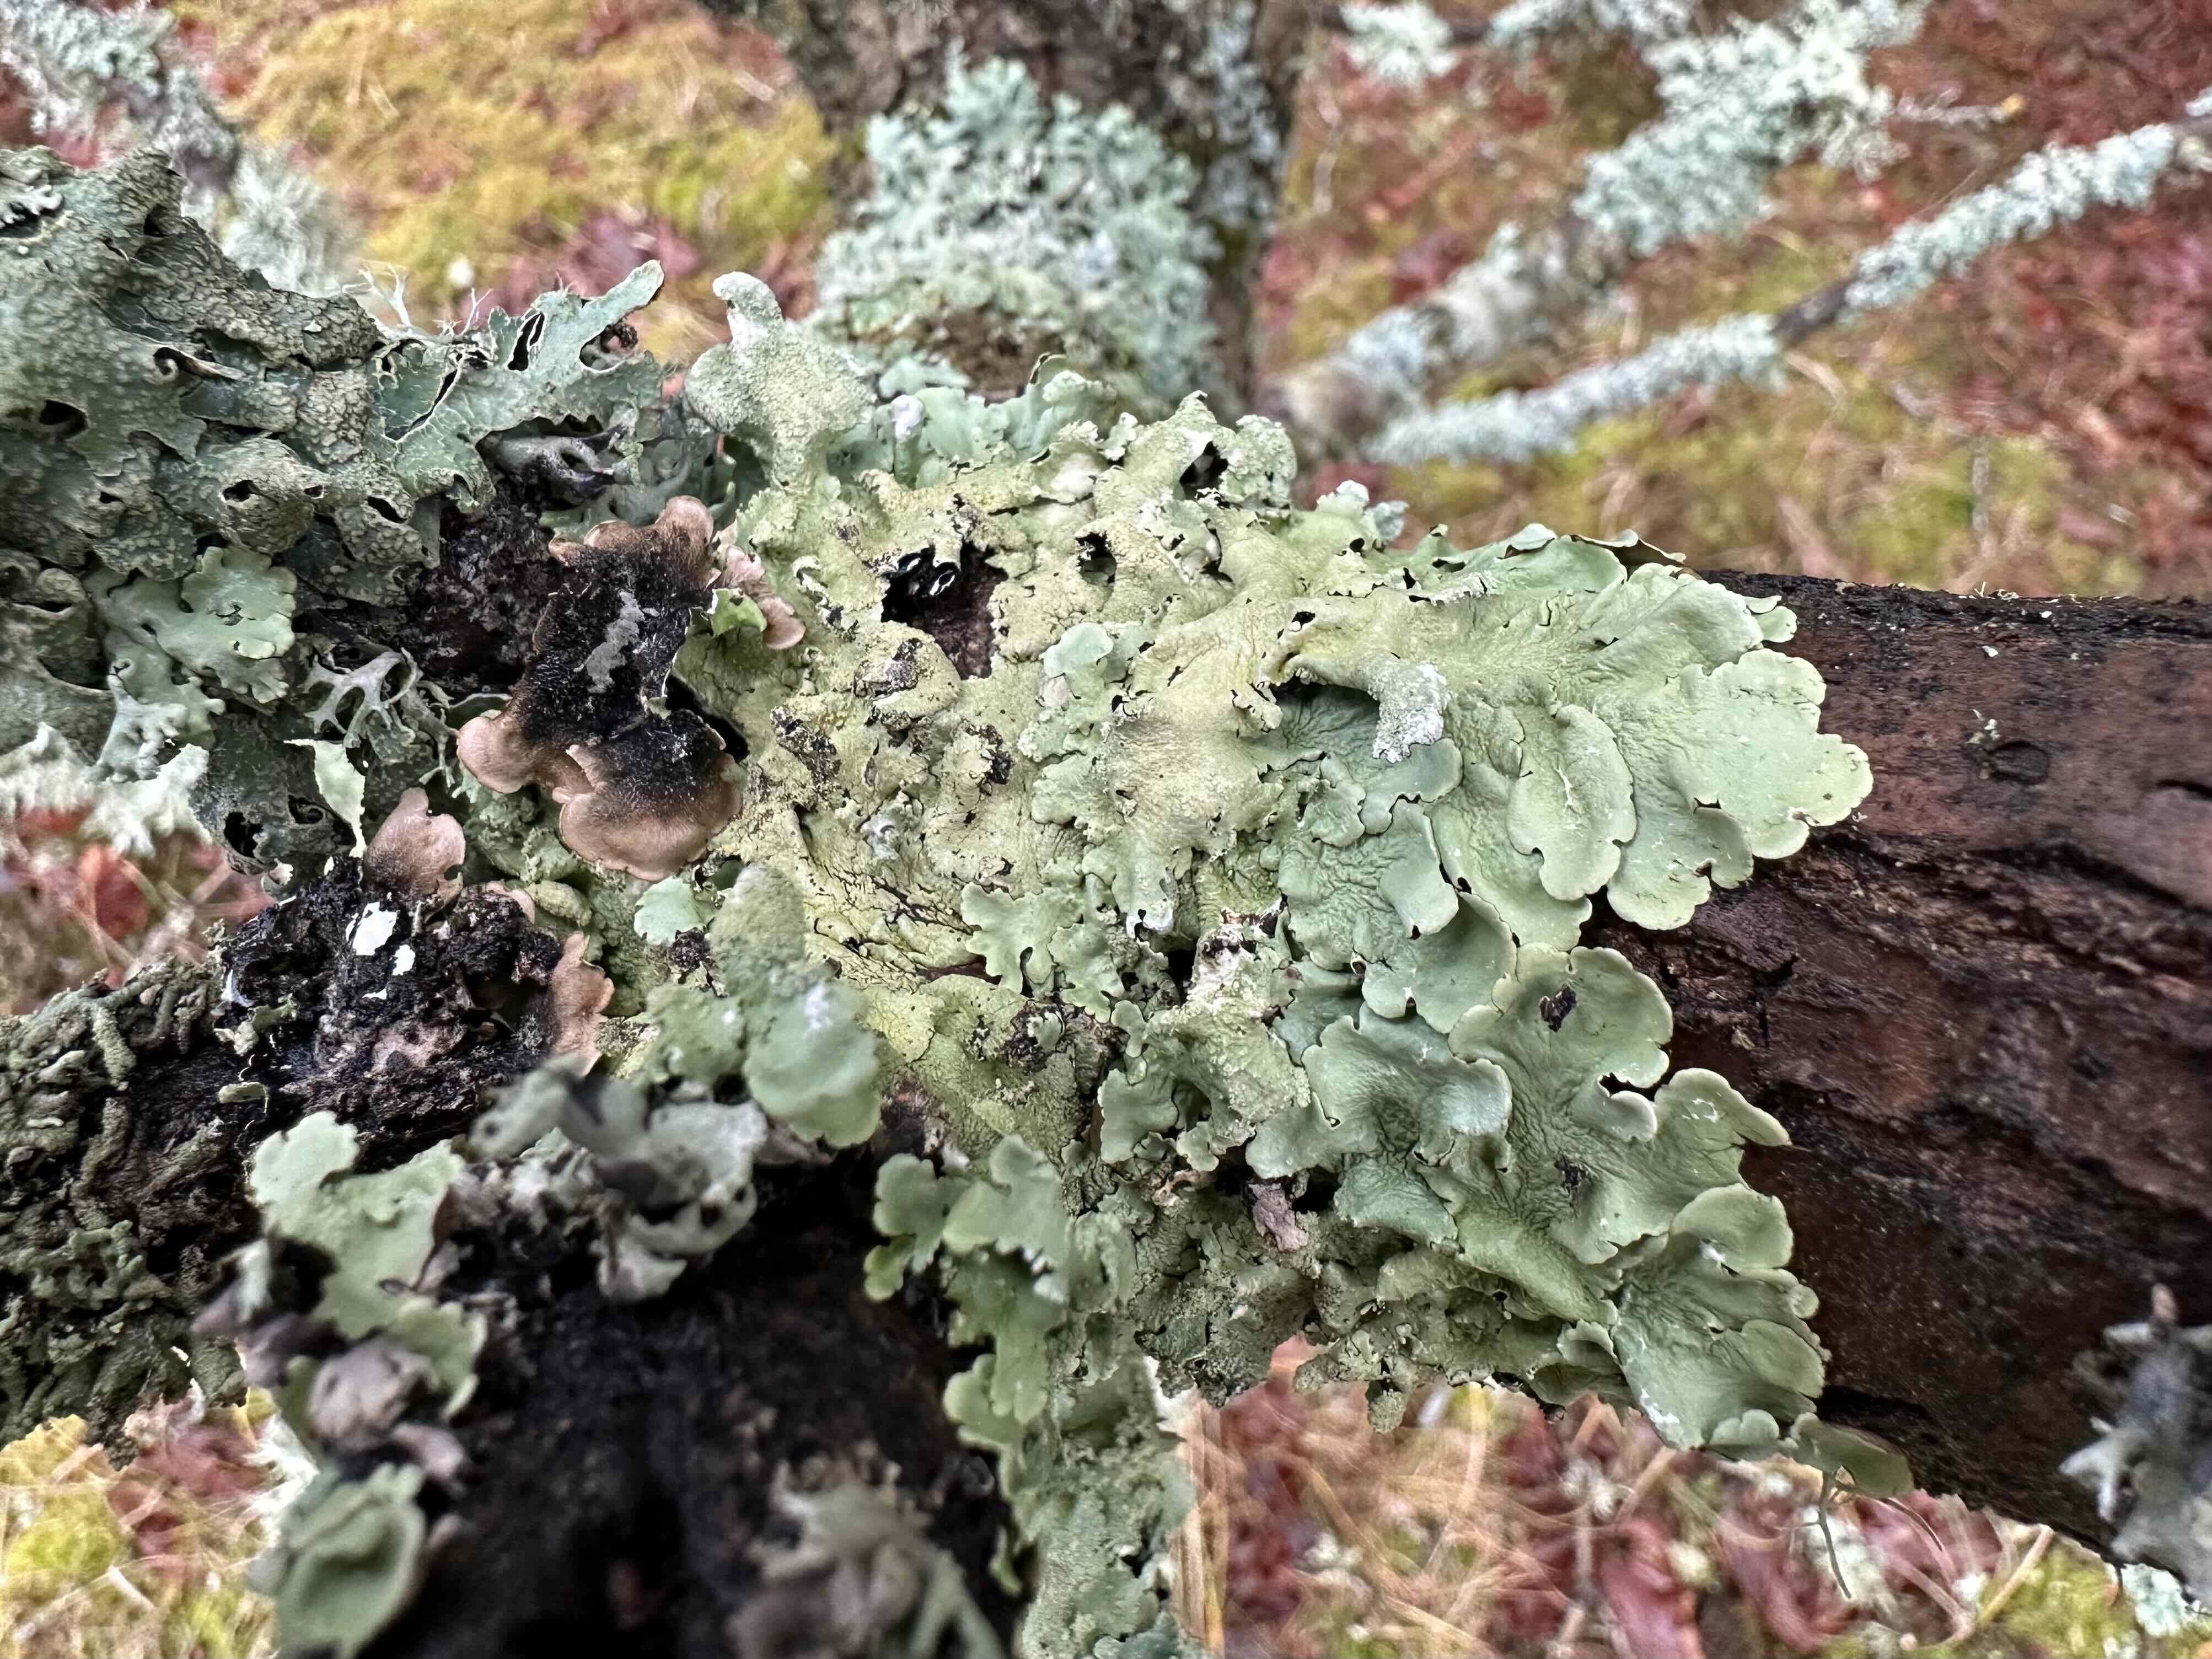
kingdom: Fungi
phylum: Ascomycota
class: Lecanoromycetes
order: Lecanorales
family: Parmeliaceae
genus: Flavoparmelia
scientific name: Flavoparmelia caperata
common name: gulgrøn skållav
